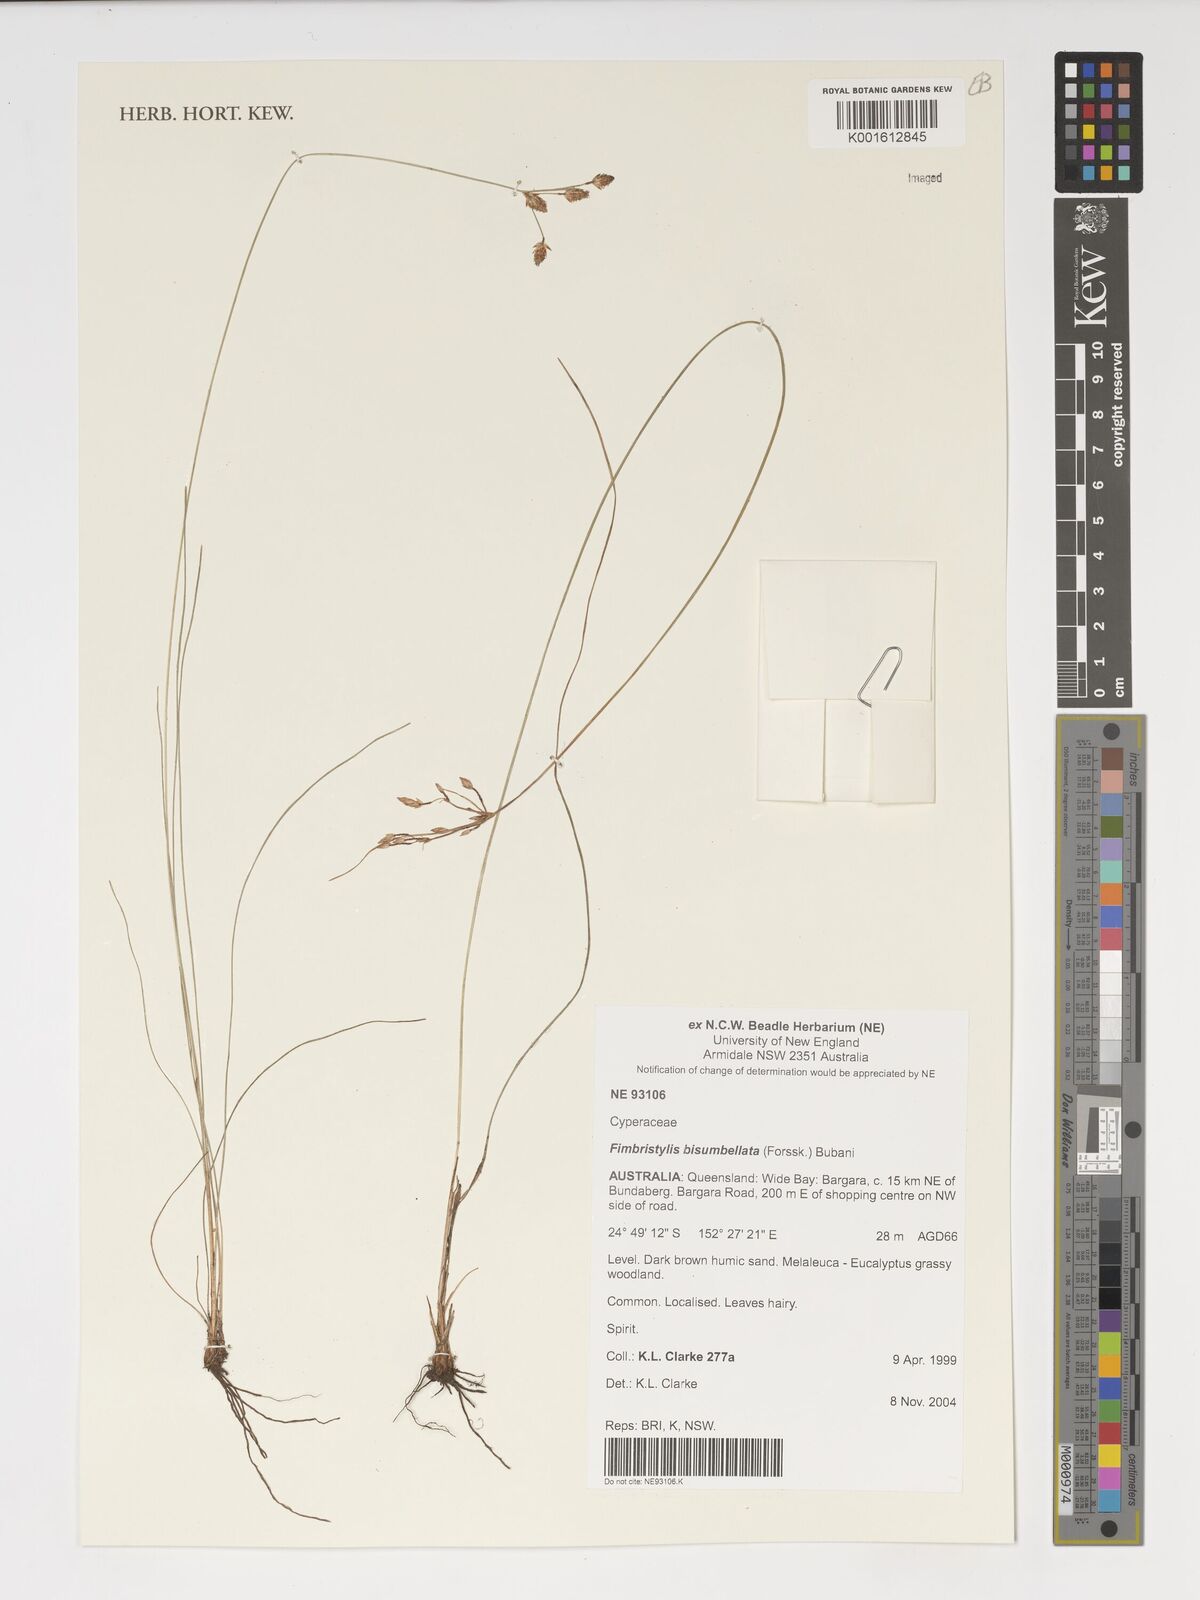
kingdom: Plantae
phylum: Tracheophyta
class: Liliopsida
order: Poales
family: Cyperaceae
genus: Fimbristylis
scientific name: Fimbristylis bisumbellata
